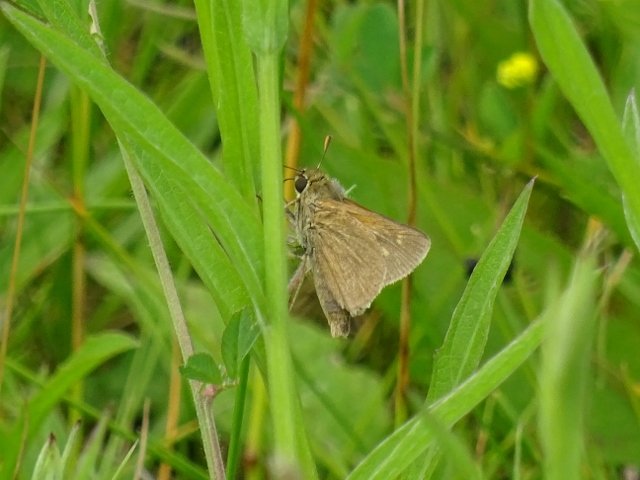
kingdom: Animalia
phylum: Arthropoda
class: Insecta
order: Lepidoptera
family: Hesperiidae
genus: Polites
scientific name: Polites themistocles
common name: Tawny-edged Skipper
